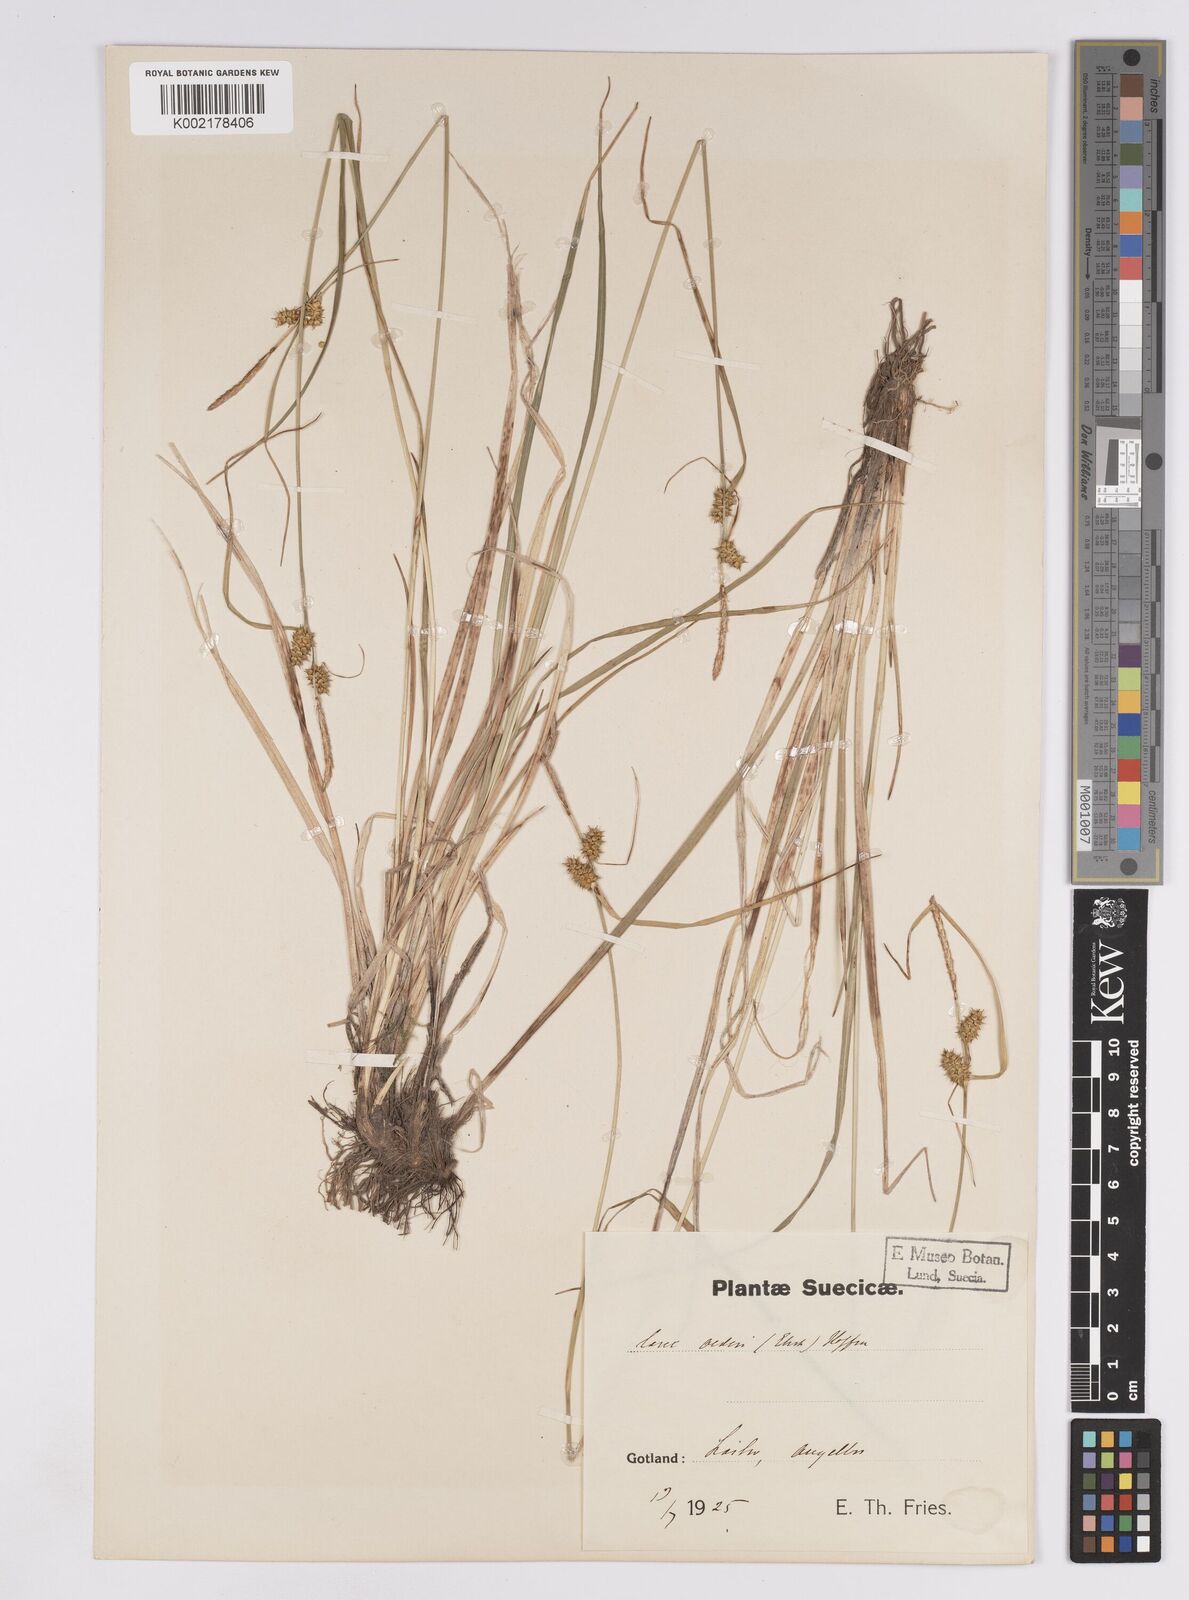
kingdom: Plantae
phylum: Tracheophyta
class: Liliopsida
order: Poales
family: Cyperaceae
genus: Carex
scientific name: Carex demissa
